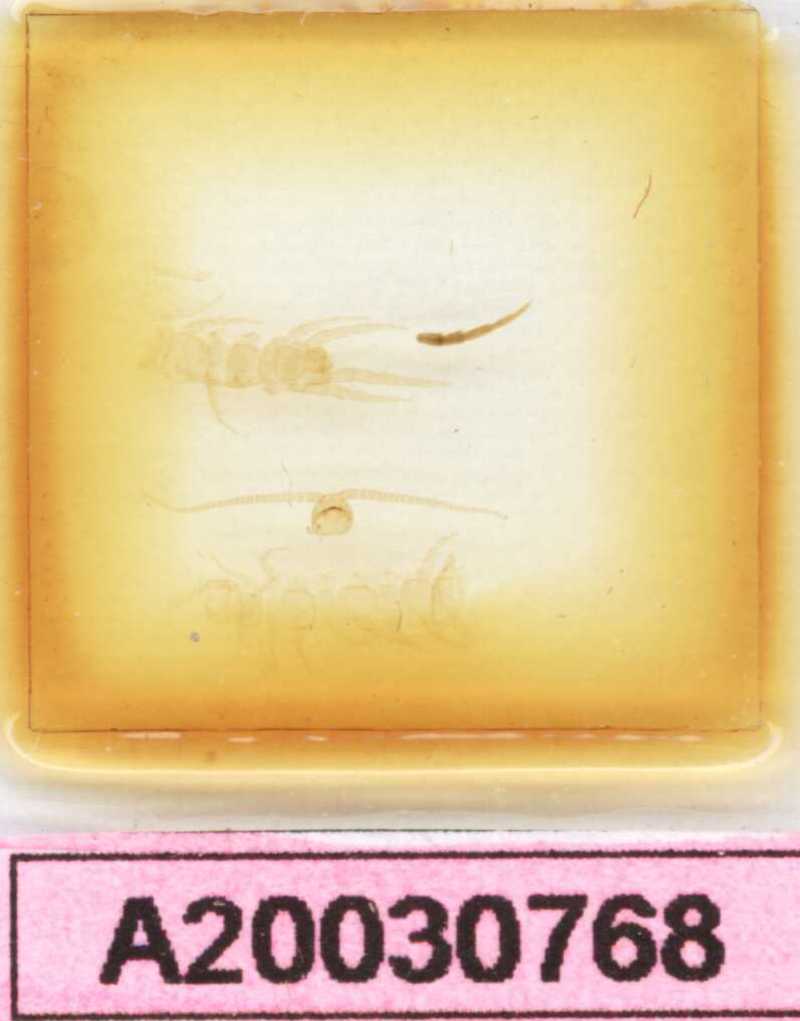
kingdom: Animalia
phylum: Arthropoda
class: Chilopoda
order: Lithobiomorpha
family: Lithobiidae
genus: Lithobius
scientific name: Lithobius mutabilis
